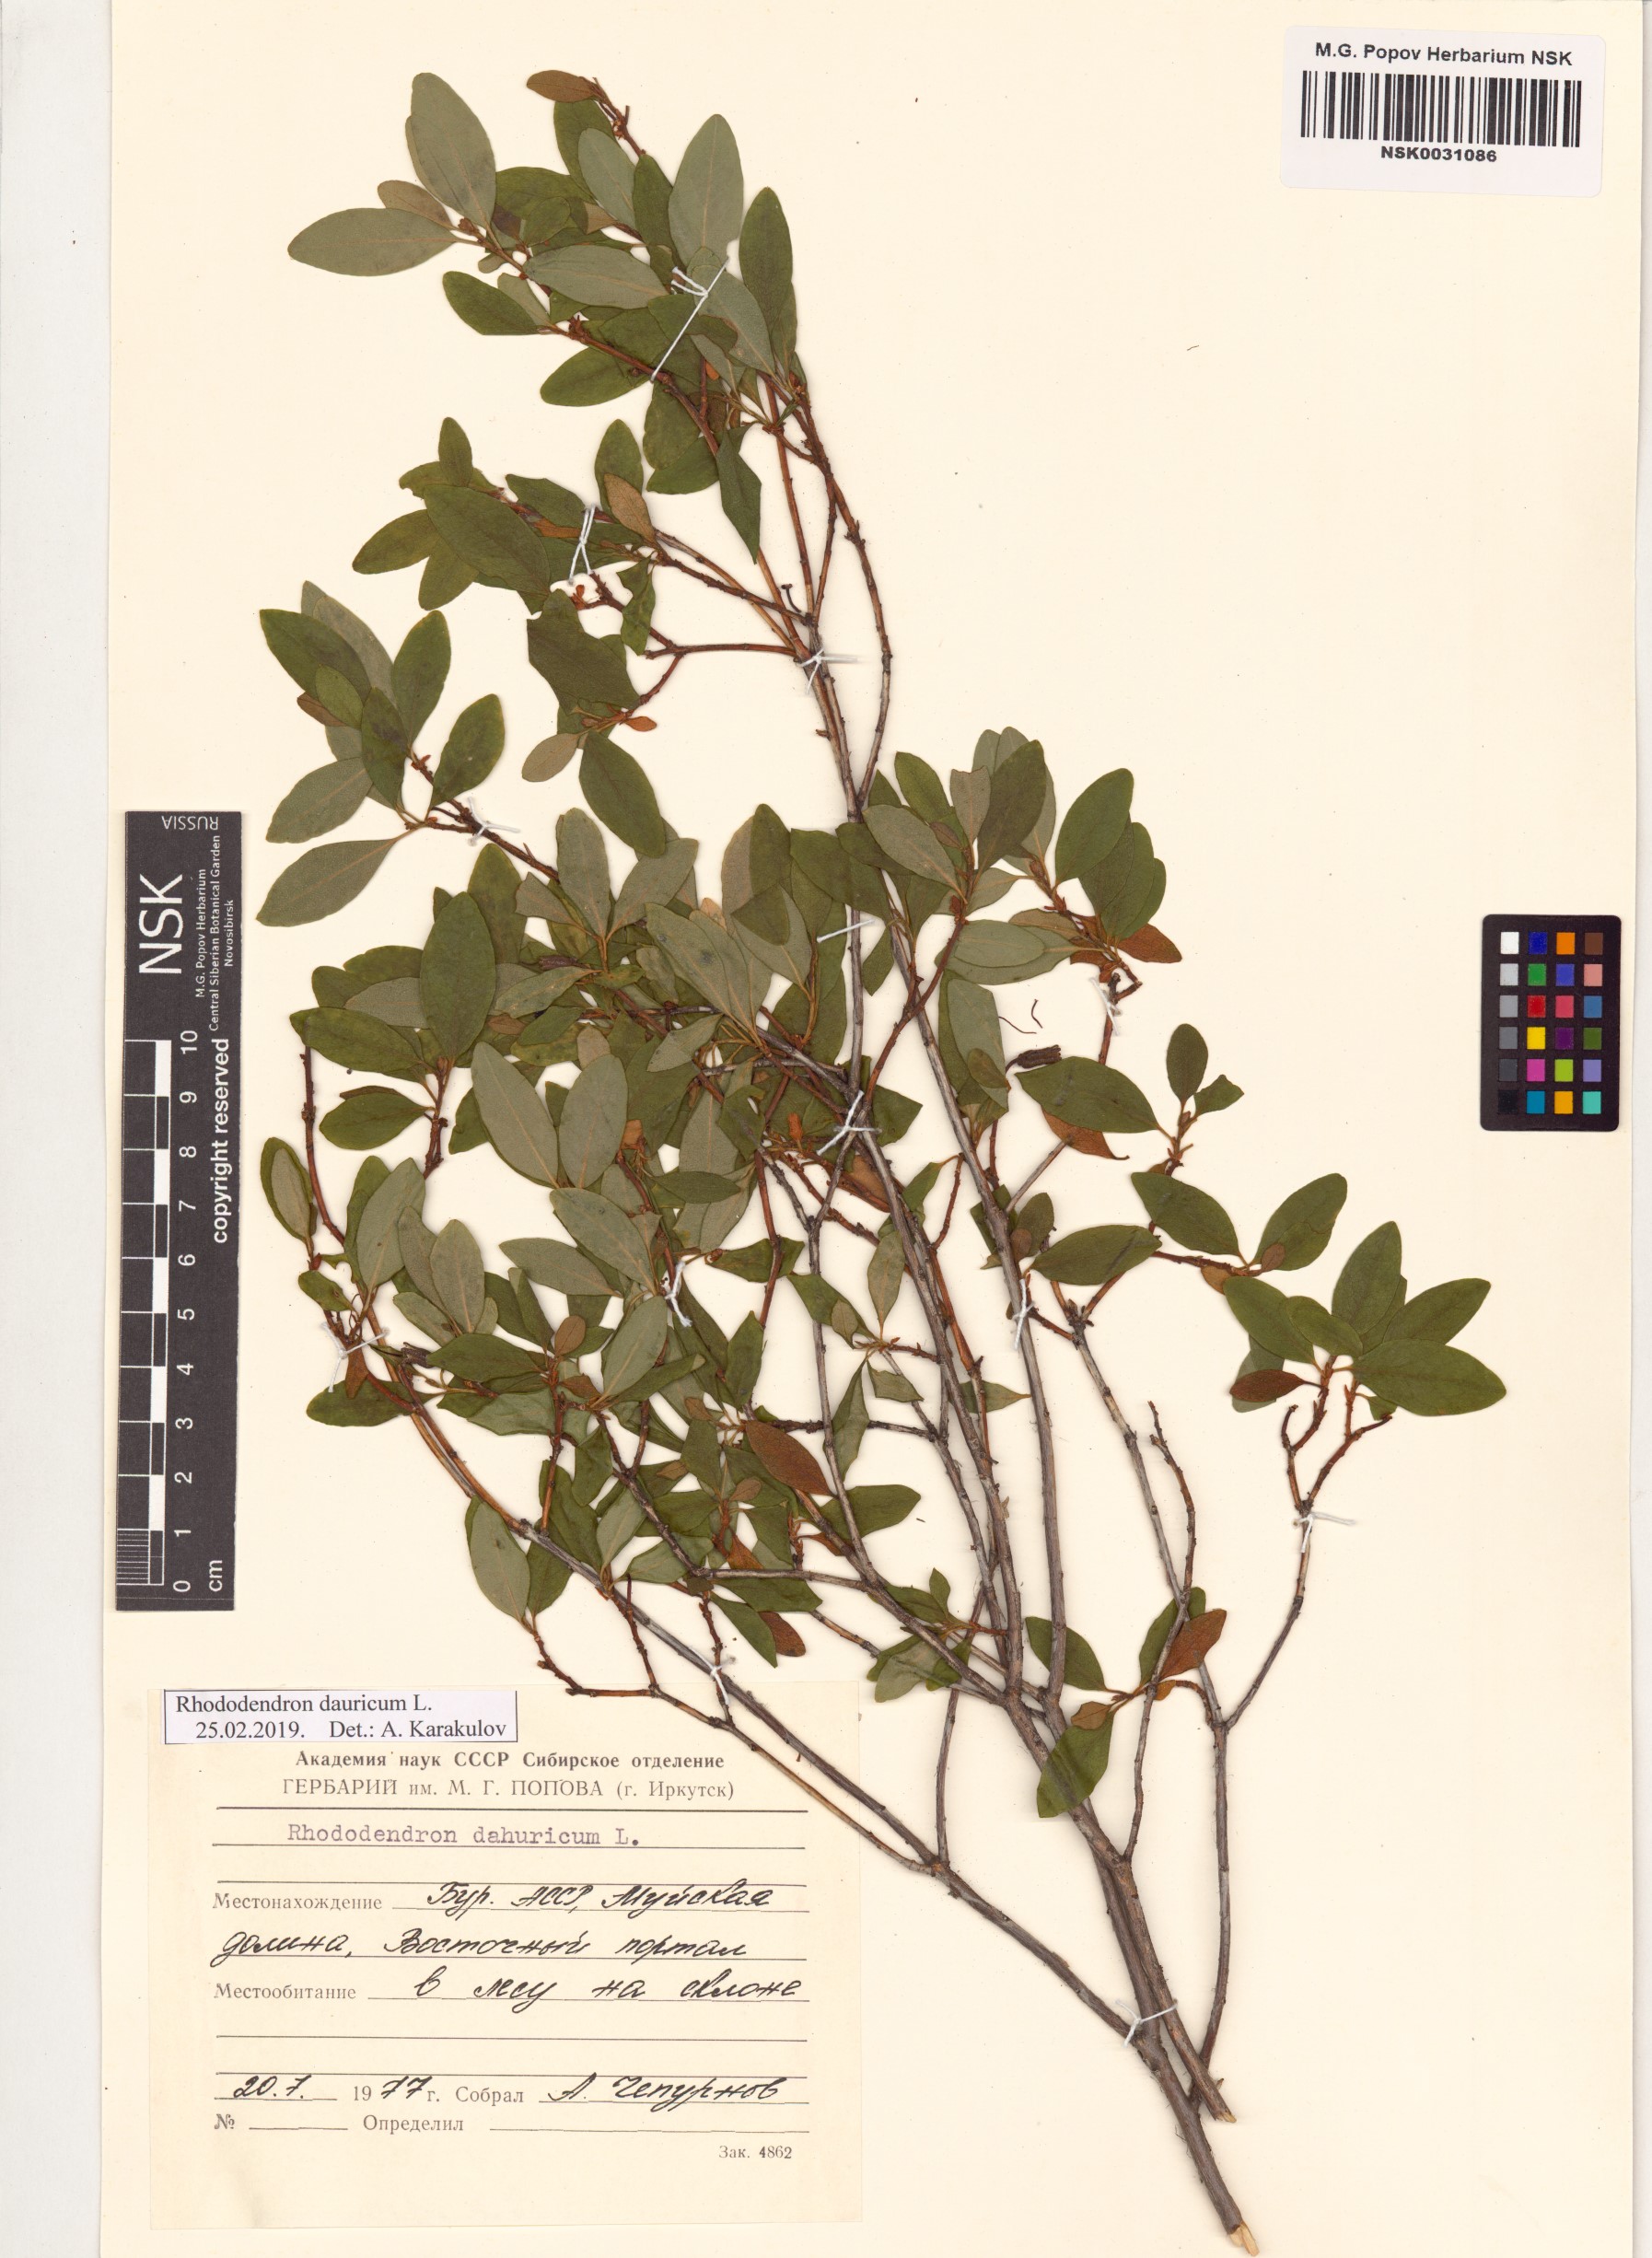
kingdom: Plantae
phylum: Tracheophyta
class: Magnoliopsida
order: Ericales
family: Ericaceae
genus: Rhododendron
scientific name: Rhododendron dauricum
